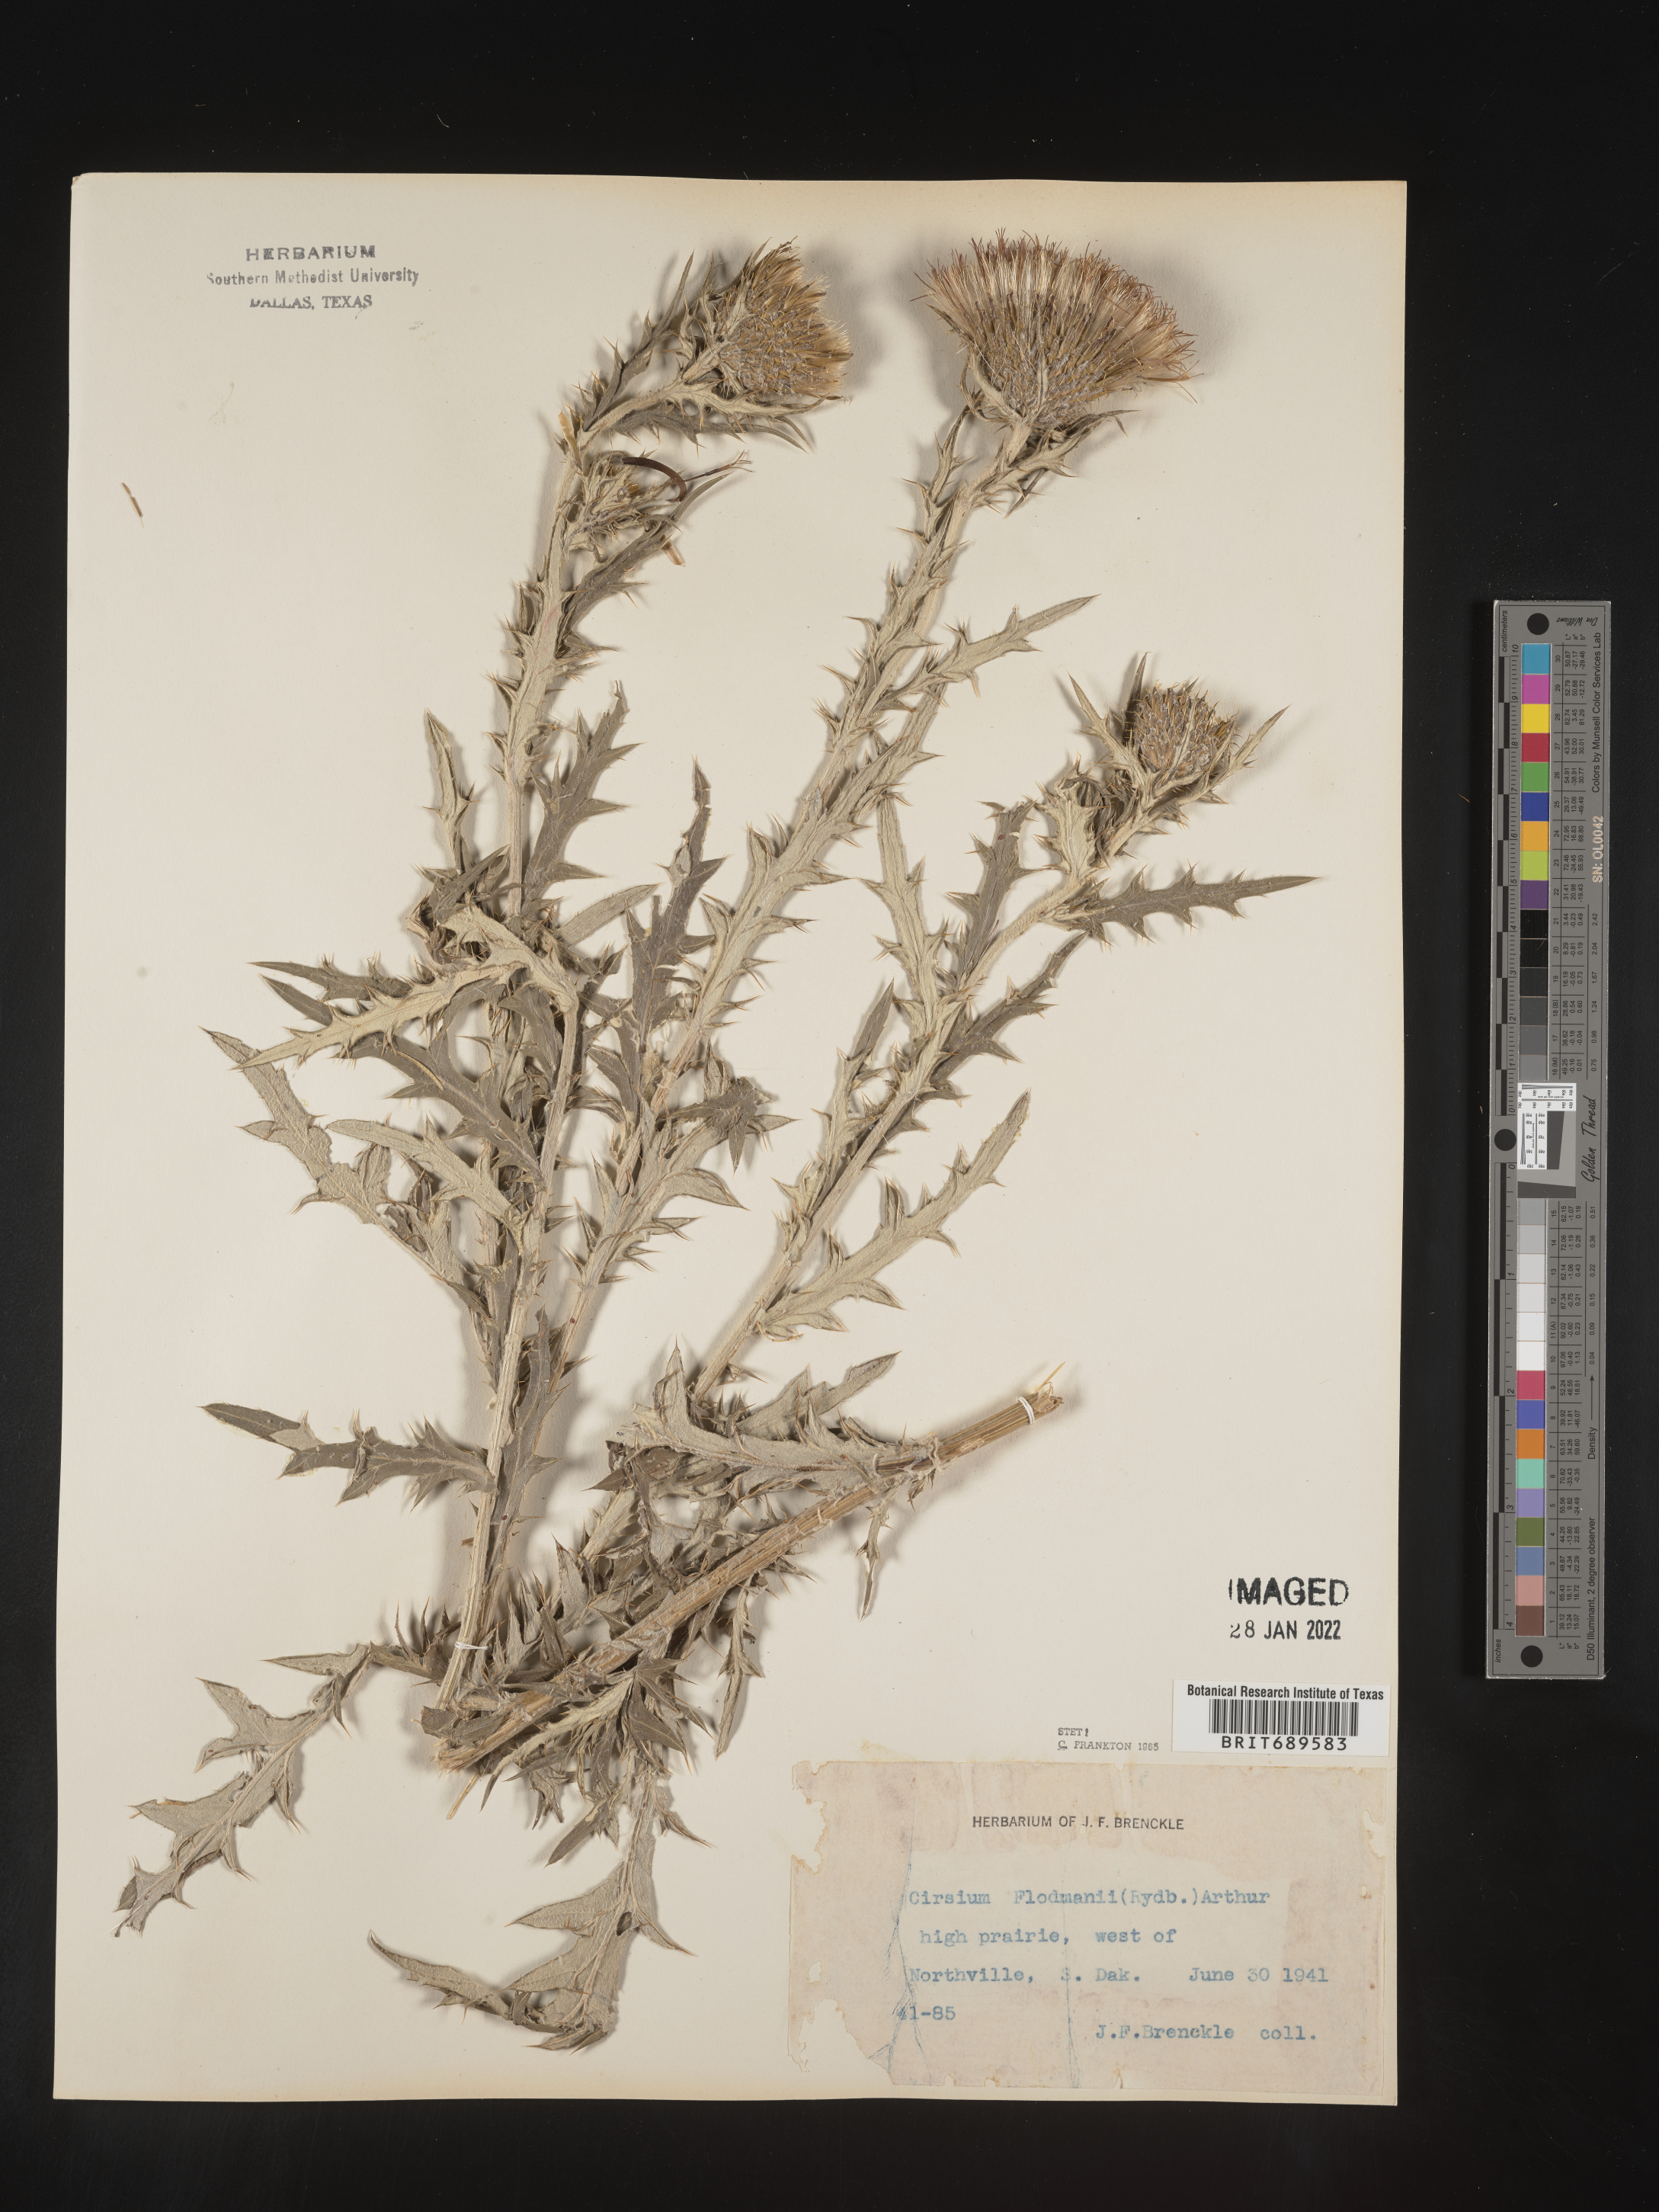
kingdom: Plantae
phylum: Tracheophyta
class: Magnoliopsida
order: Asterales
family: Asteraceae
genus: Cirsium
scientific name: Cirsium flodmanii
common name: Flodman's thistle
